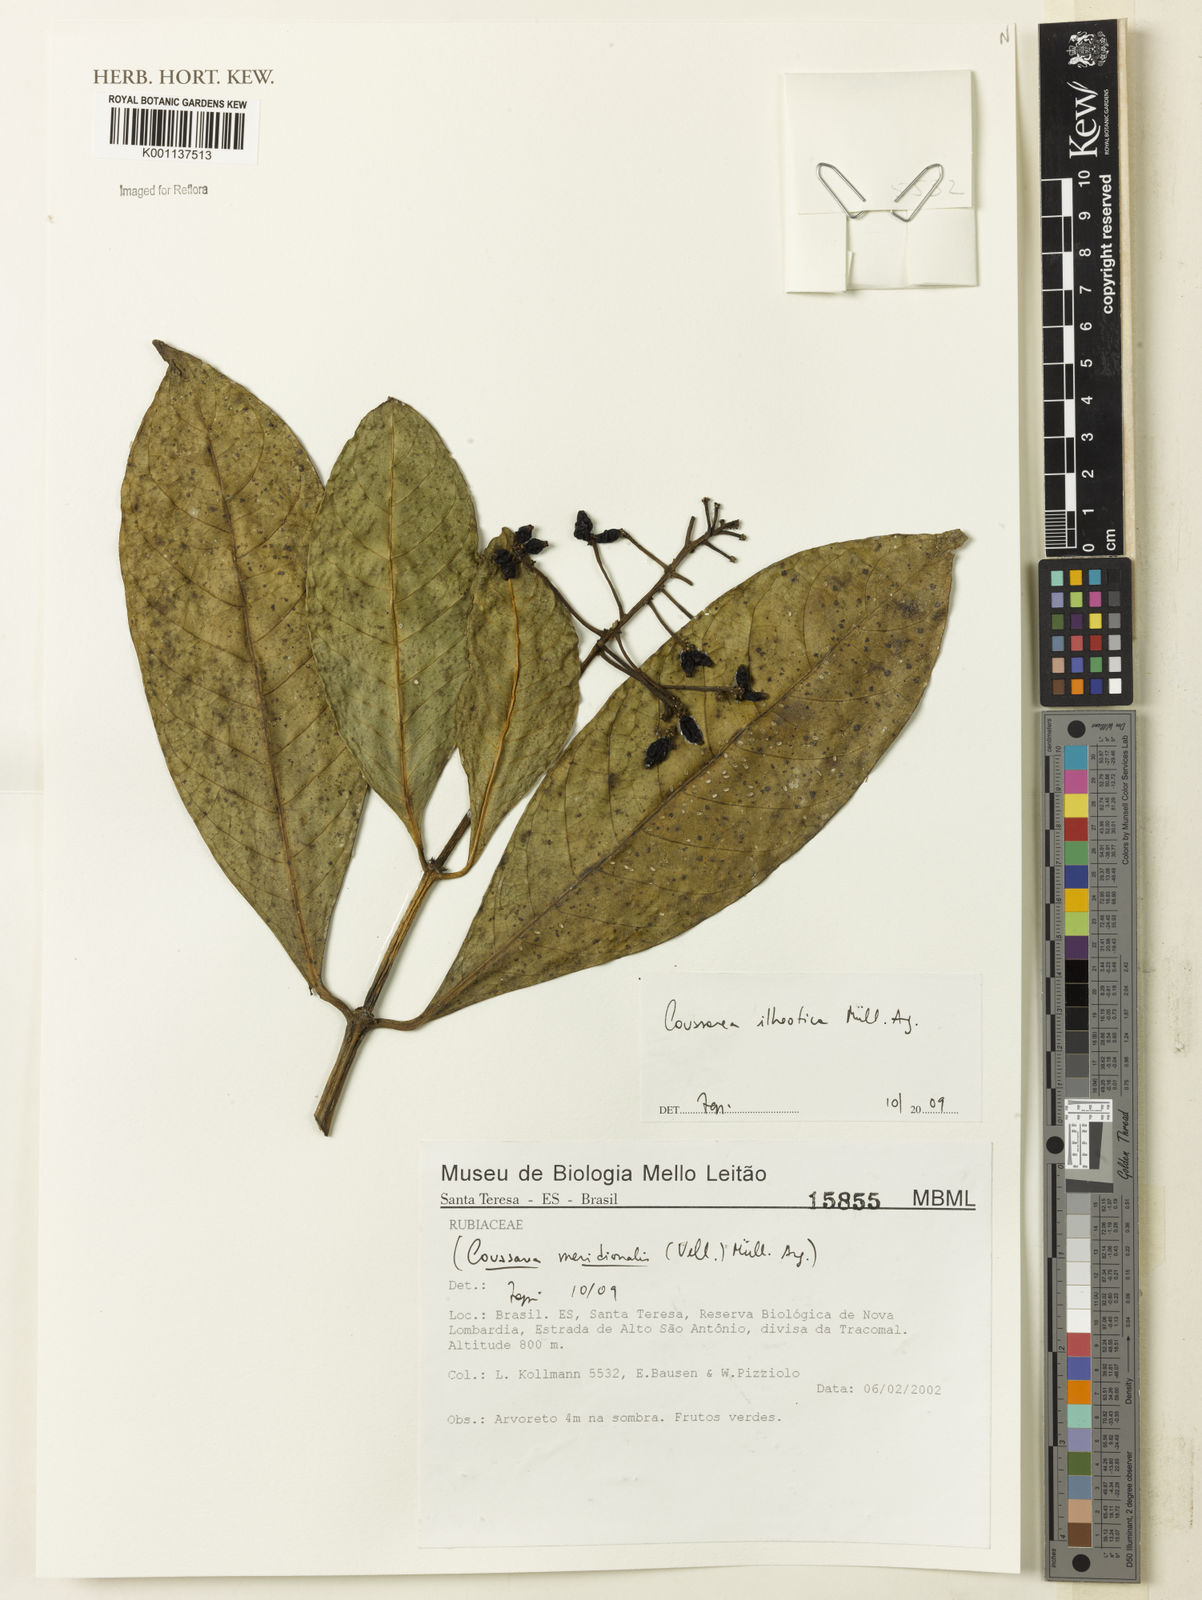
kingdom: Plantae
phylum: Tracheophyta
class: Magnoliopsida
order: Gentianales
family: Rubiaceae
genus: Coussarea
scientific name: Coussarea
